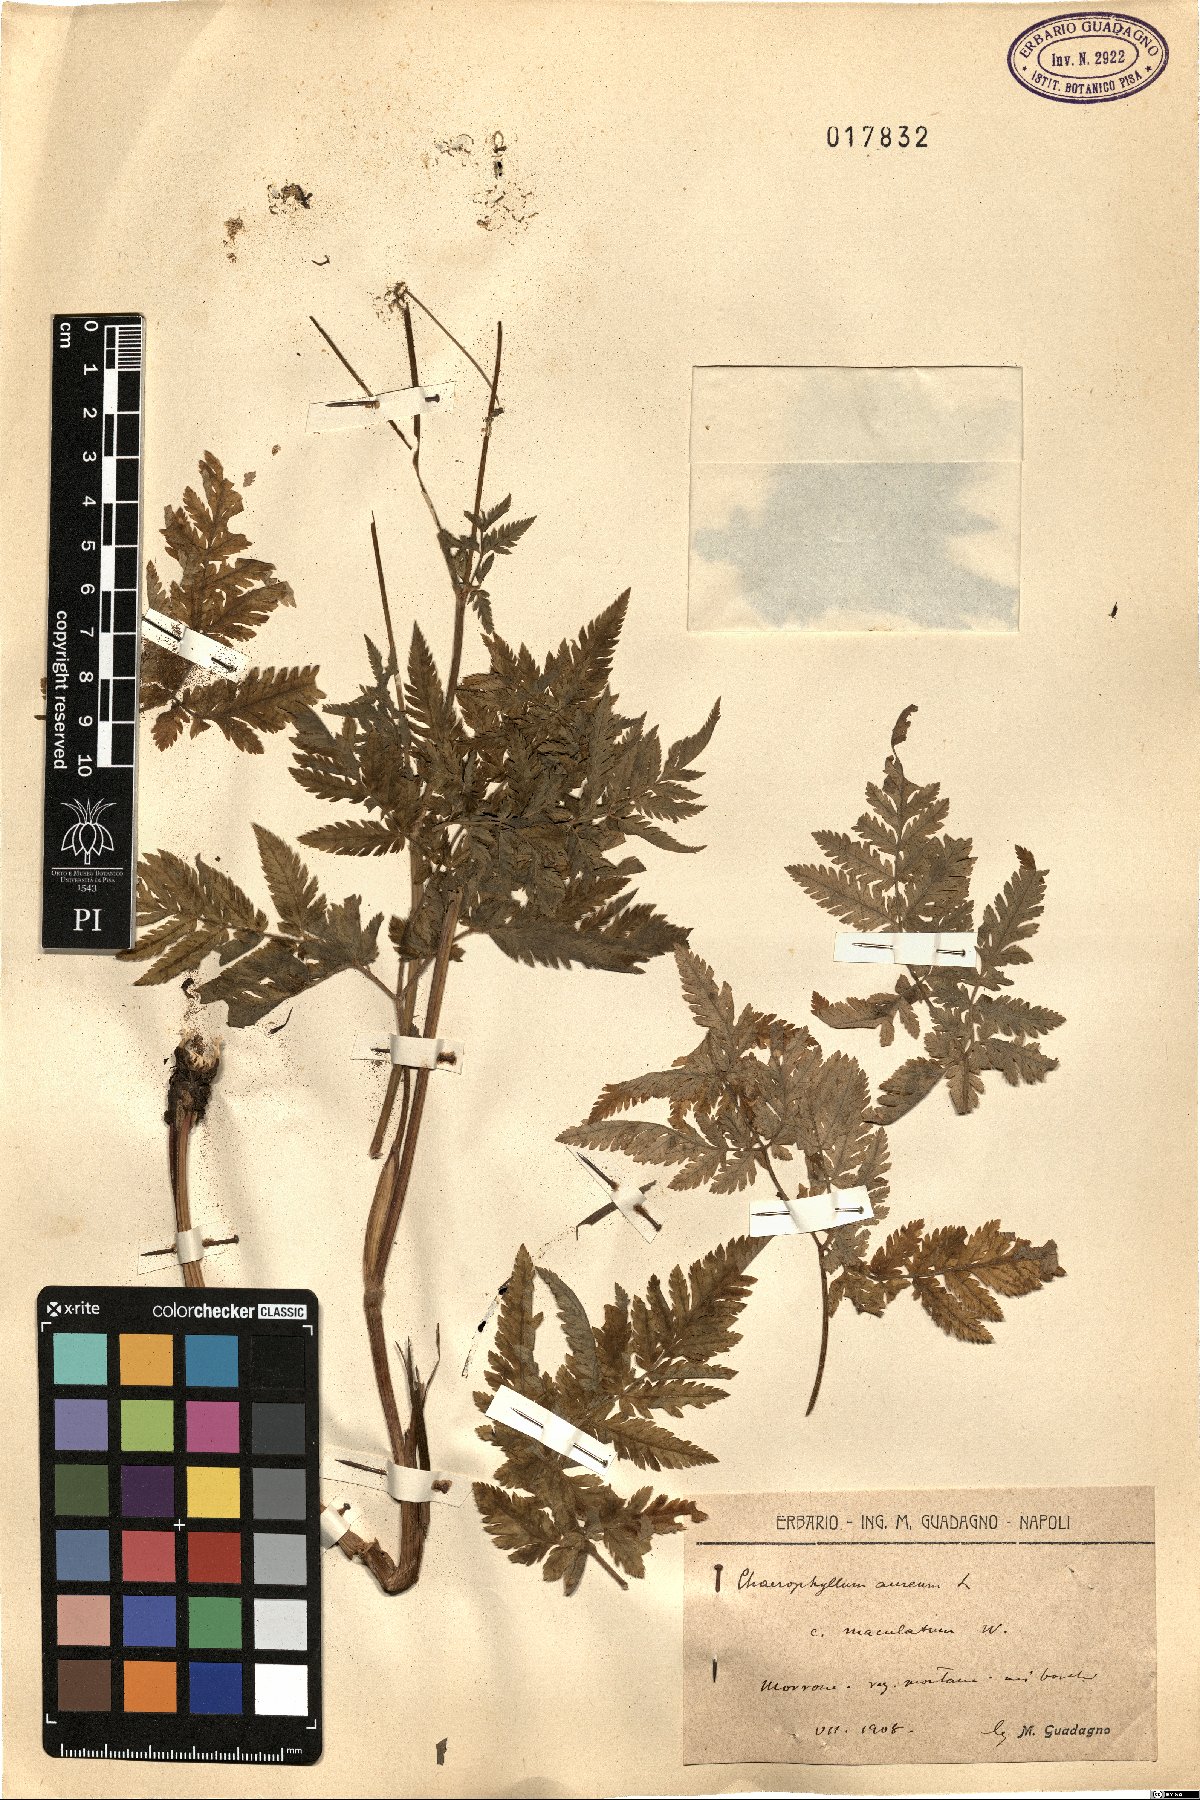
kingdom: Plantae
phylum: Tracheophyta
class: Magnoliopsida
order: Apiales
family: Apiaceae
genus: Chaerophyllum
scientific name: Chaerophyllum aureum
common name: Golden chervil
